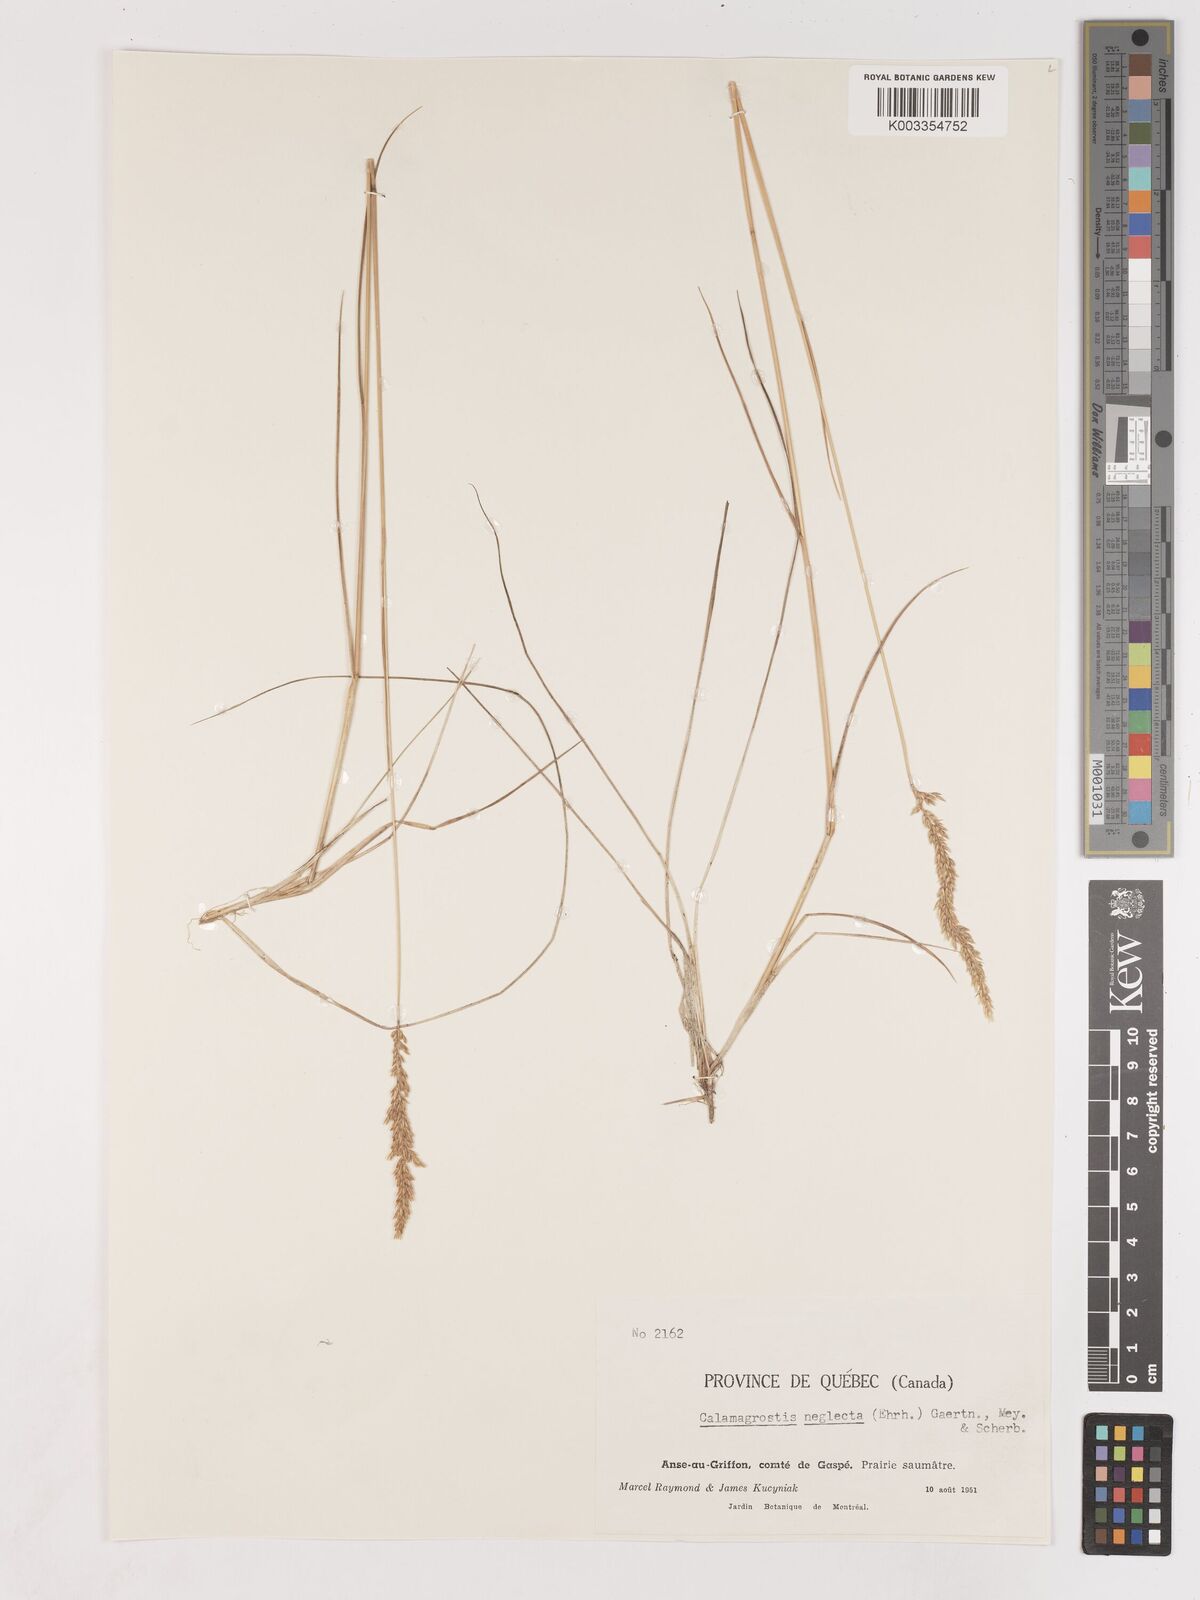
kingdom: Plantae
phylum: Tracheophyta
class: Liliopsida
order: Poales
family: Poaceae
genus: Cinnagrostis
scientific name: Cinnagrostis recta
